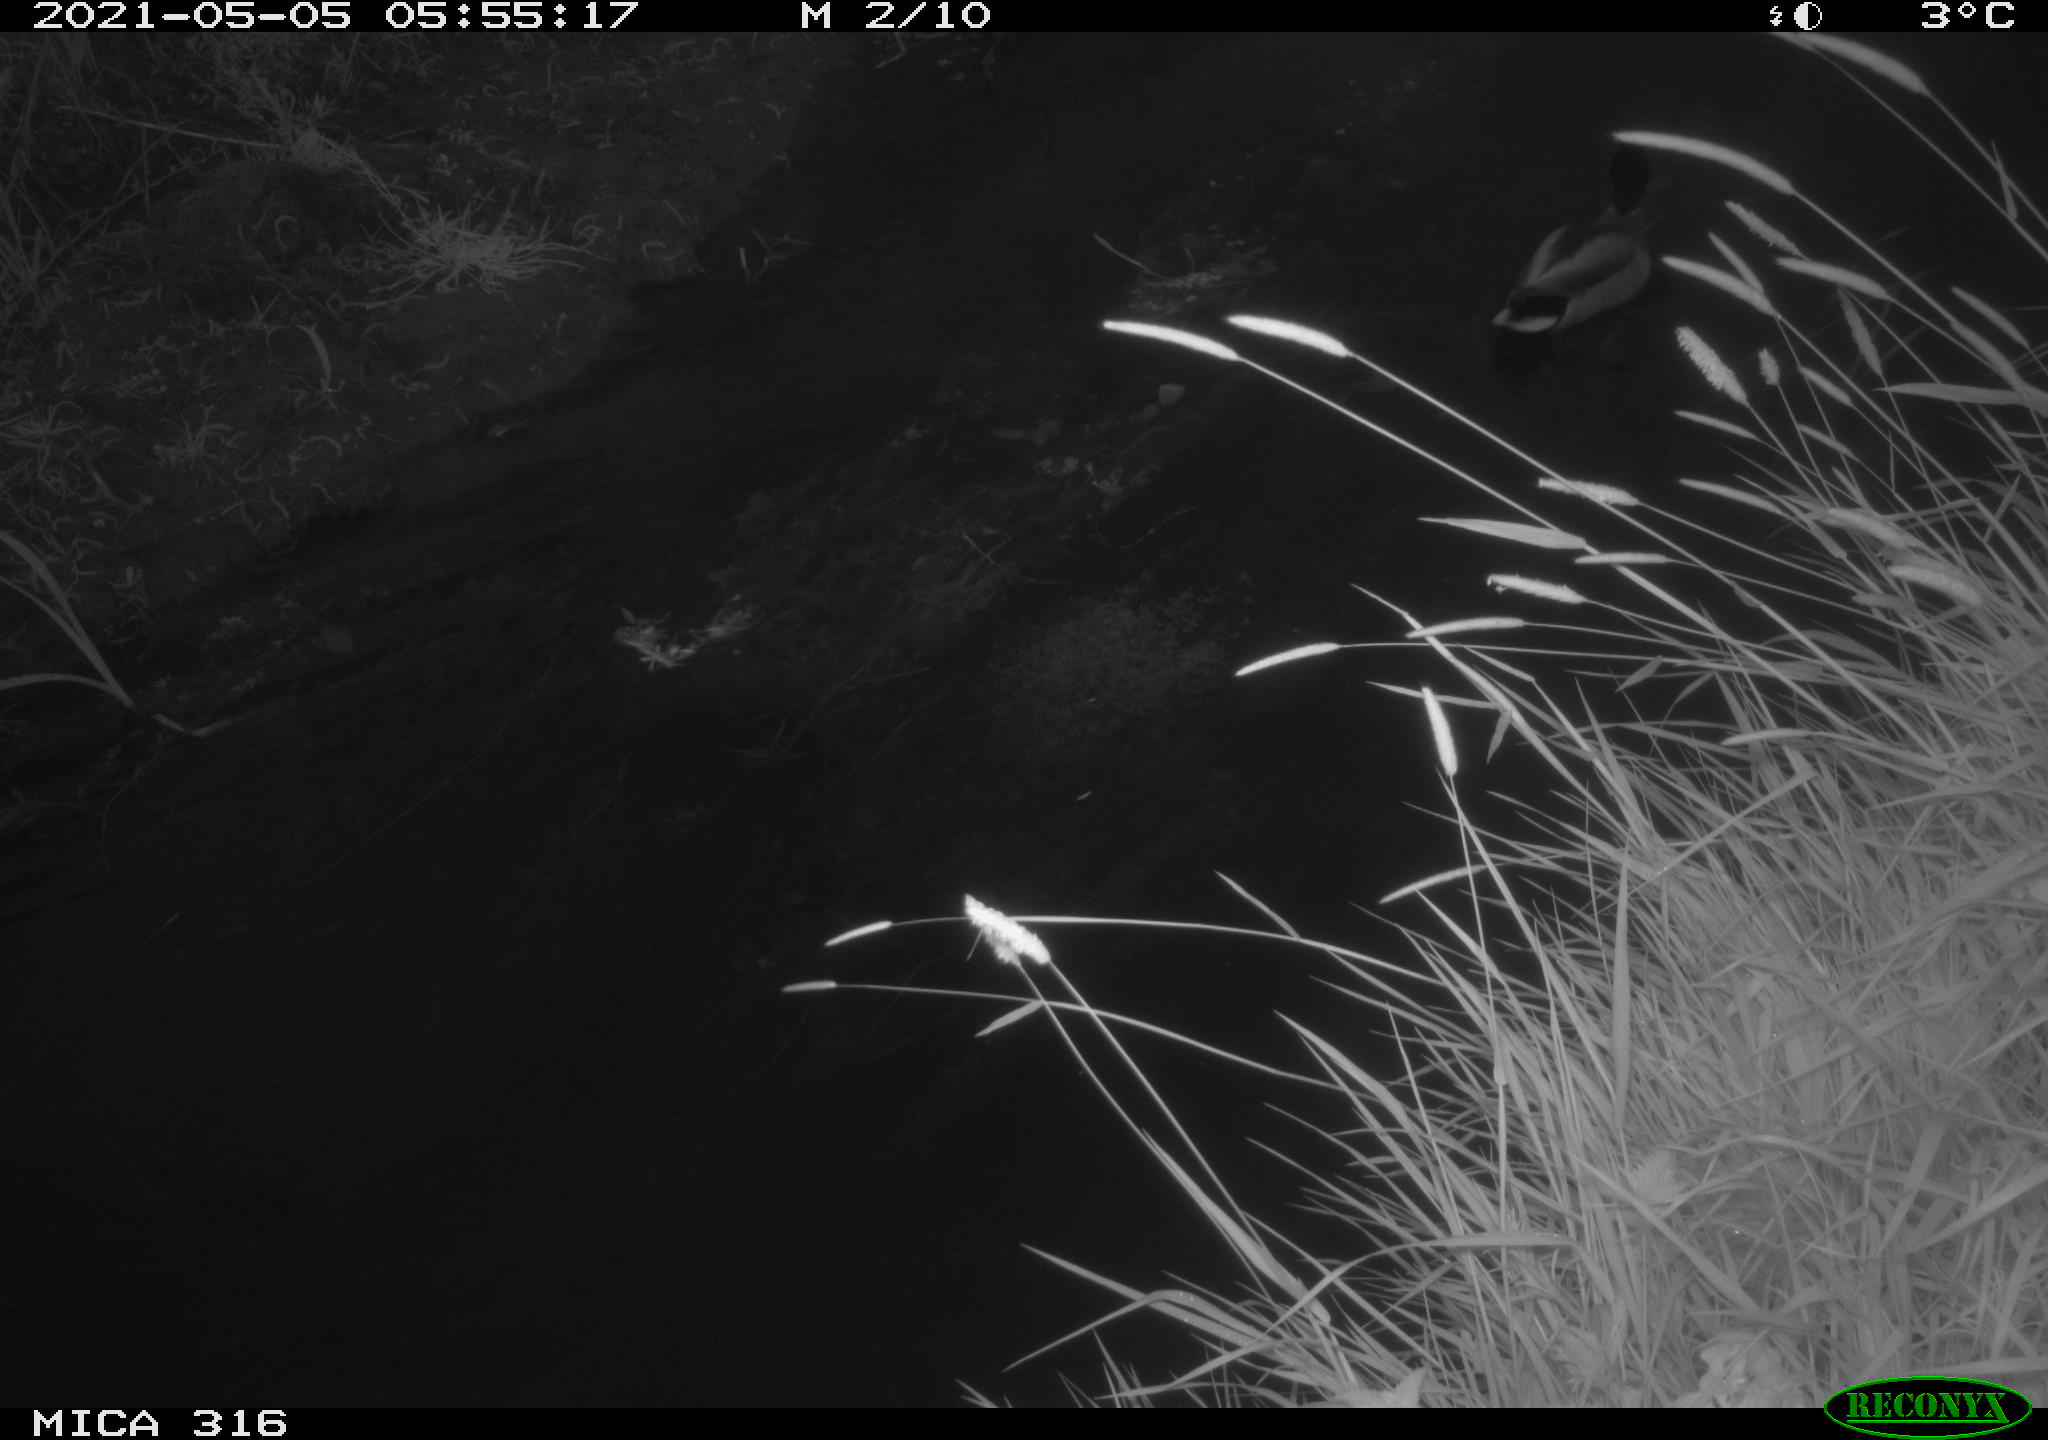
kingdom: Animalia
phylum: Chordata
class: Aves
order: Anseriformes
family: Anatidae
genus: Anas
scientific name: Anas platyrhynchos
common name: Mallard
